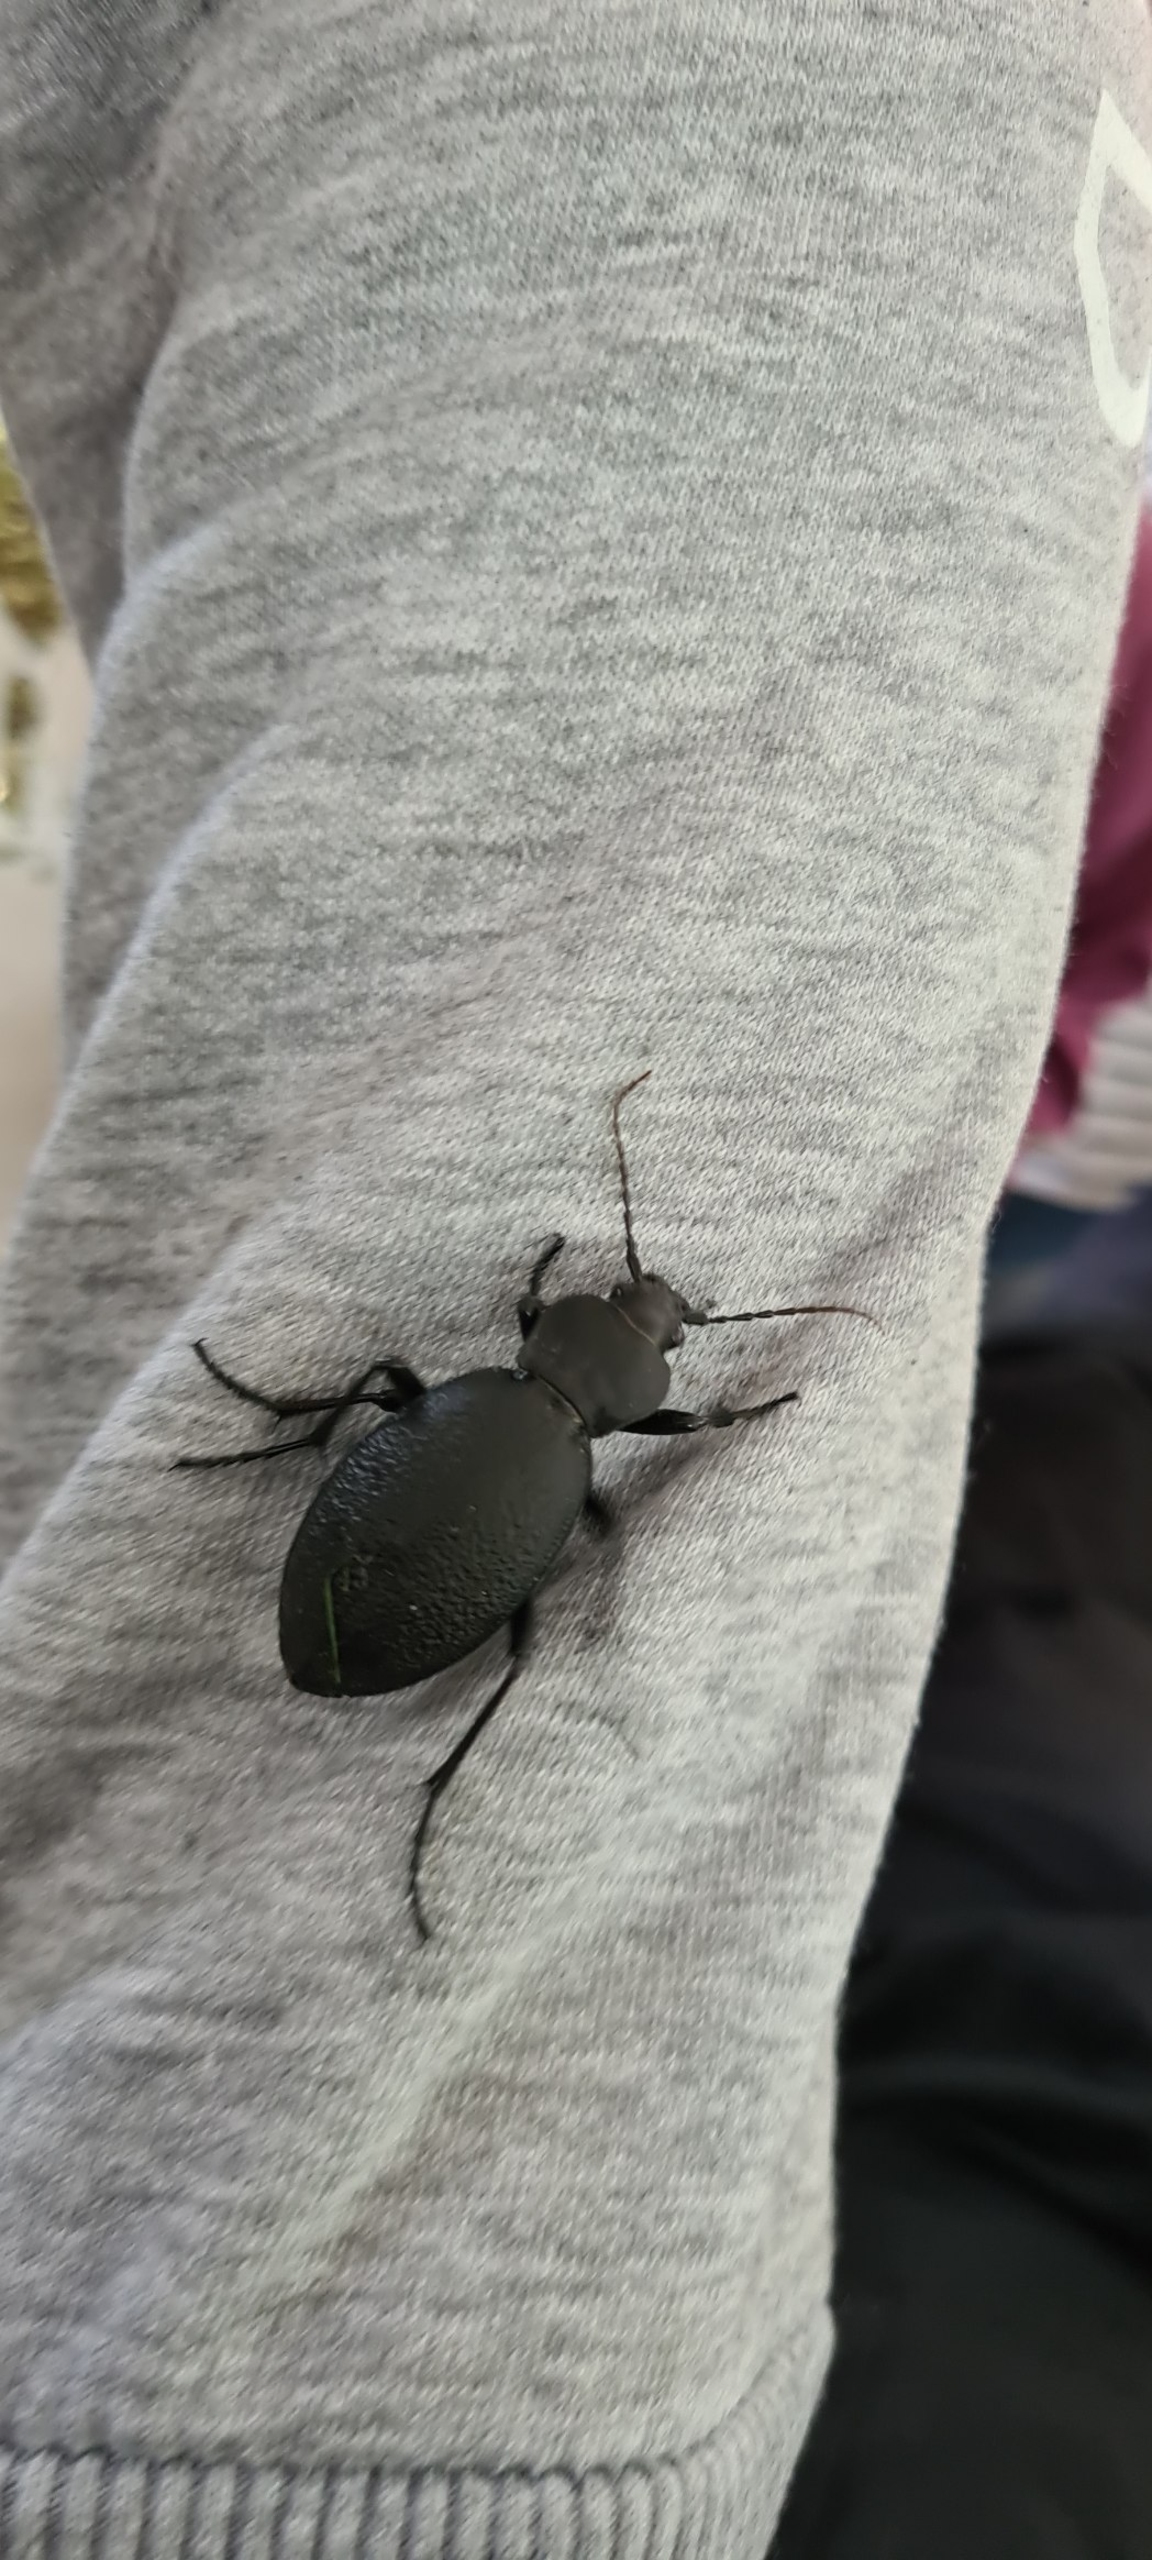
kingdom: Animalia
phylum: Arthropoda
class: Insecta
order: Coleoptera
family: Carabidae
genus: Carabus
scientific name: Carabus coriaceus
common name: Læderløber
